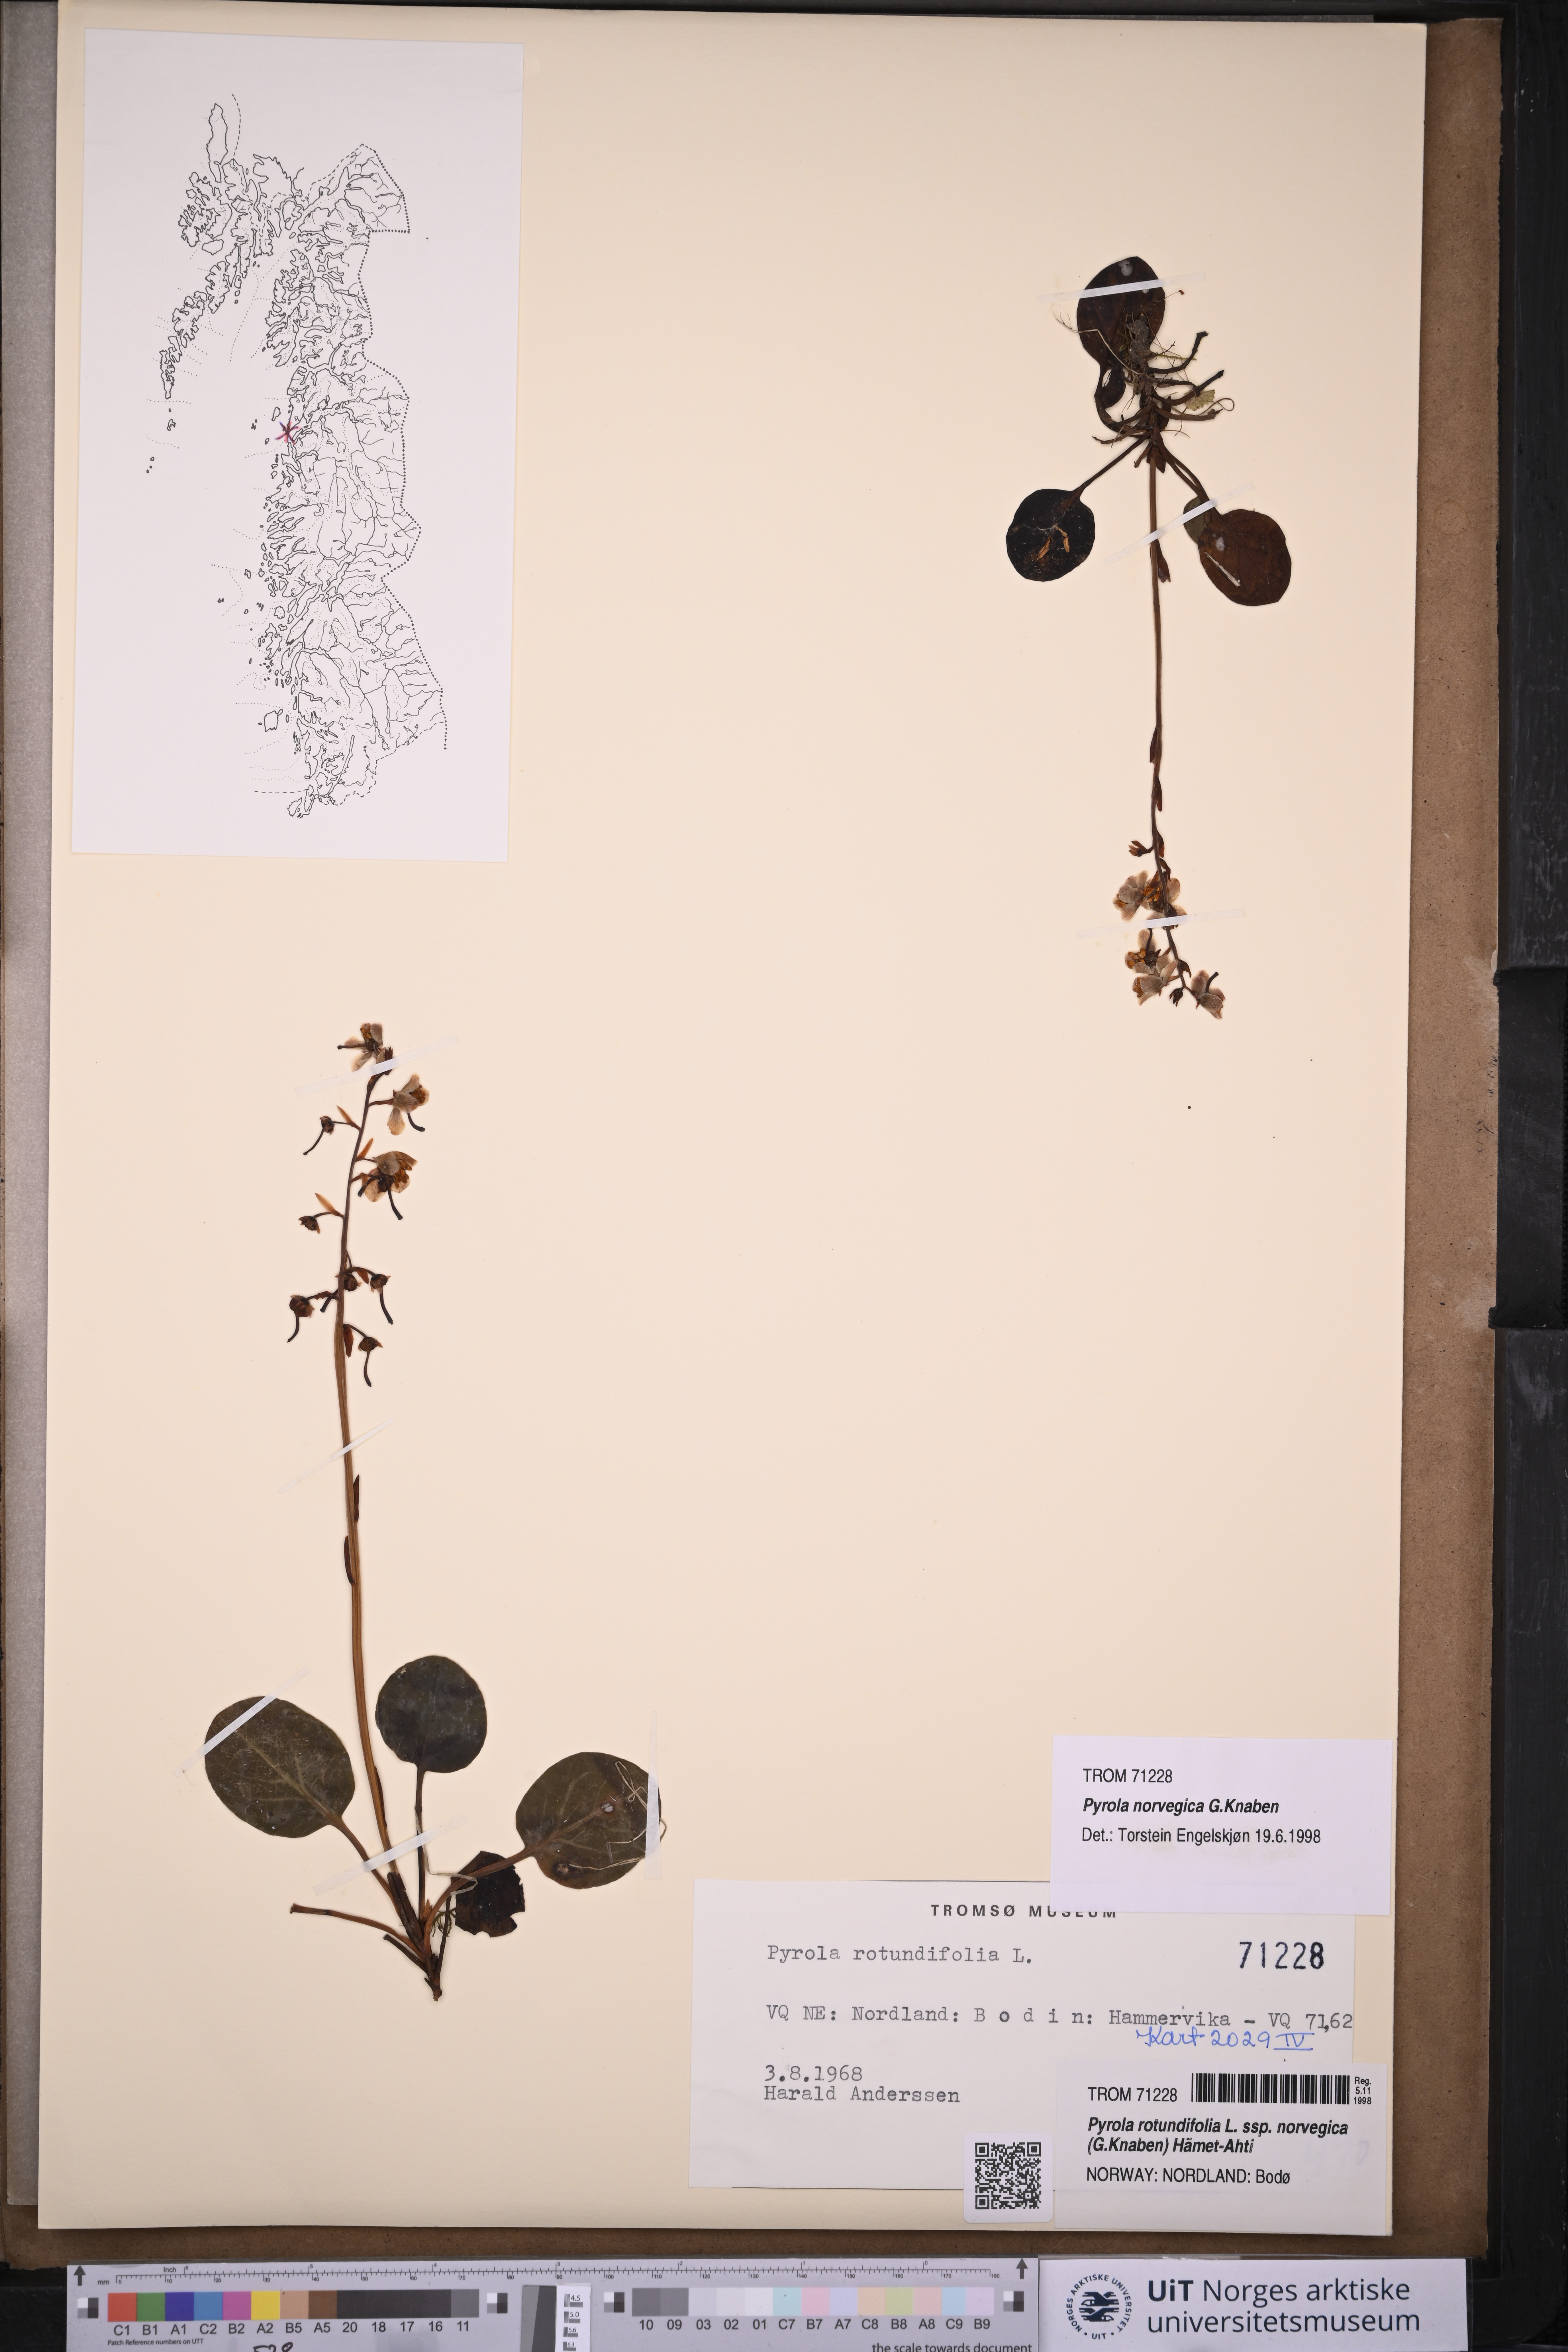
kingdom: Plantae
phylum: Tracheophyta
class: Magnoliopsida
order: Ericales
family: Ericaceae
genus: Pyrola
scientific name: Pyrola rotundifolia
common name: Round-leaved wintergreen
